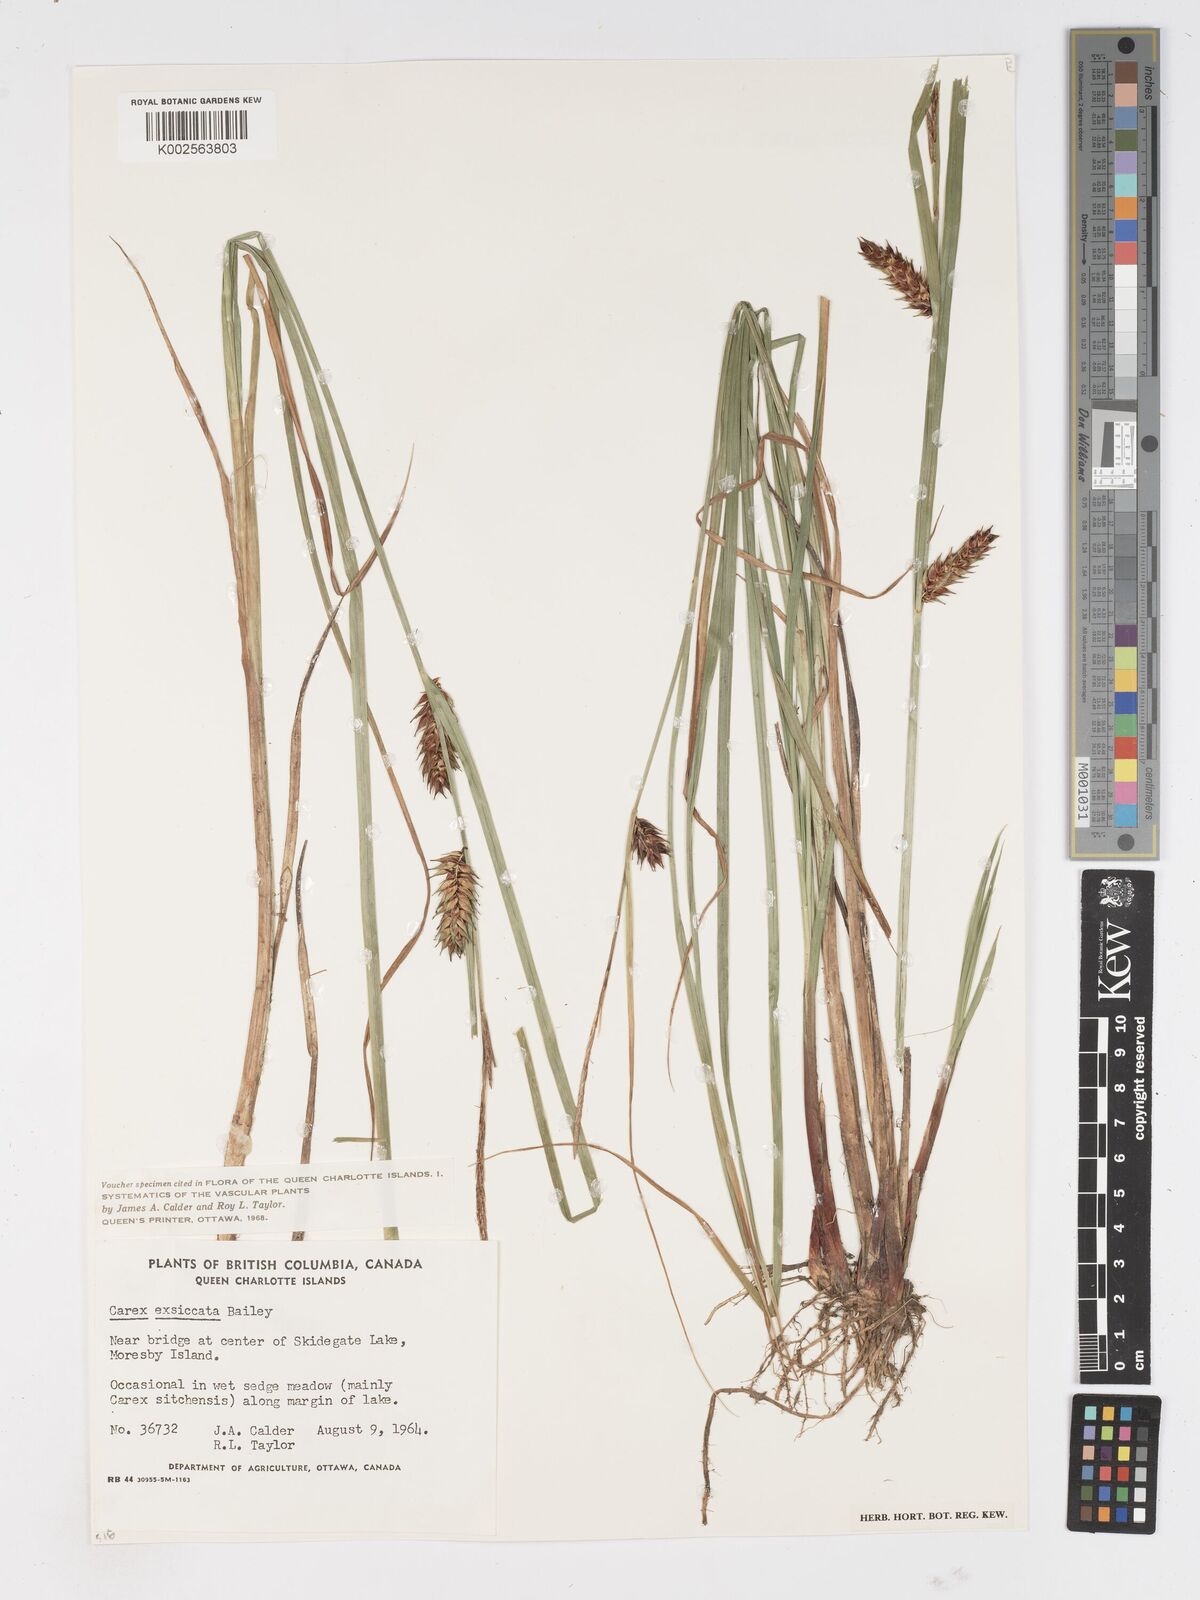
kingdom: Plantae
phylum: Tracheophyta
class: Liliopsida
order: Poales
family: Cyperaceae
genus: Carex
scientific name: Carex exsiccata
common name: Beaked sedge
